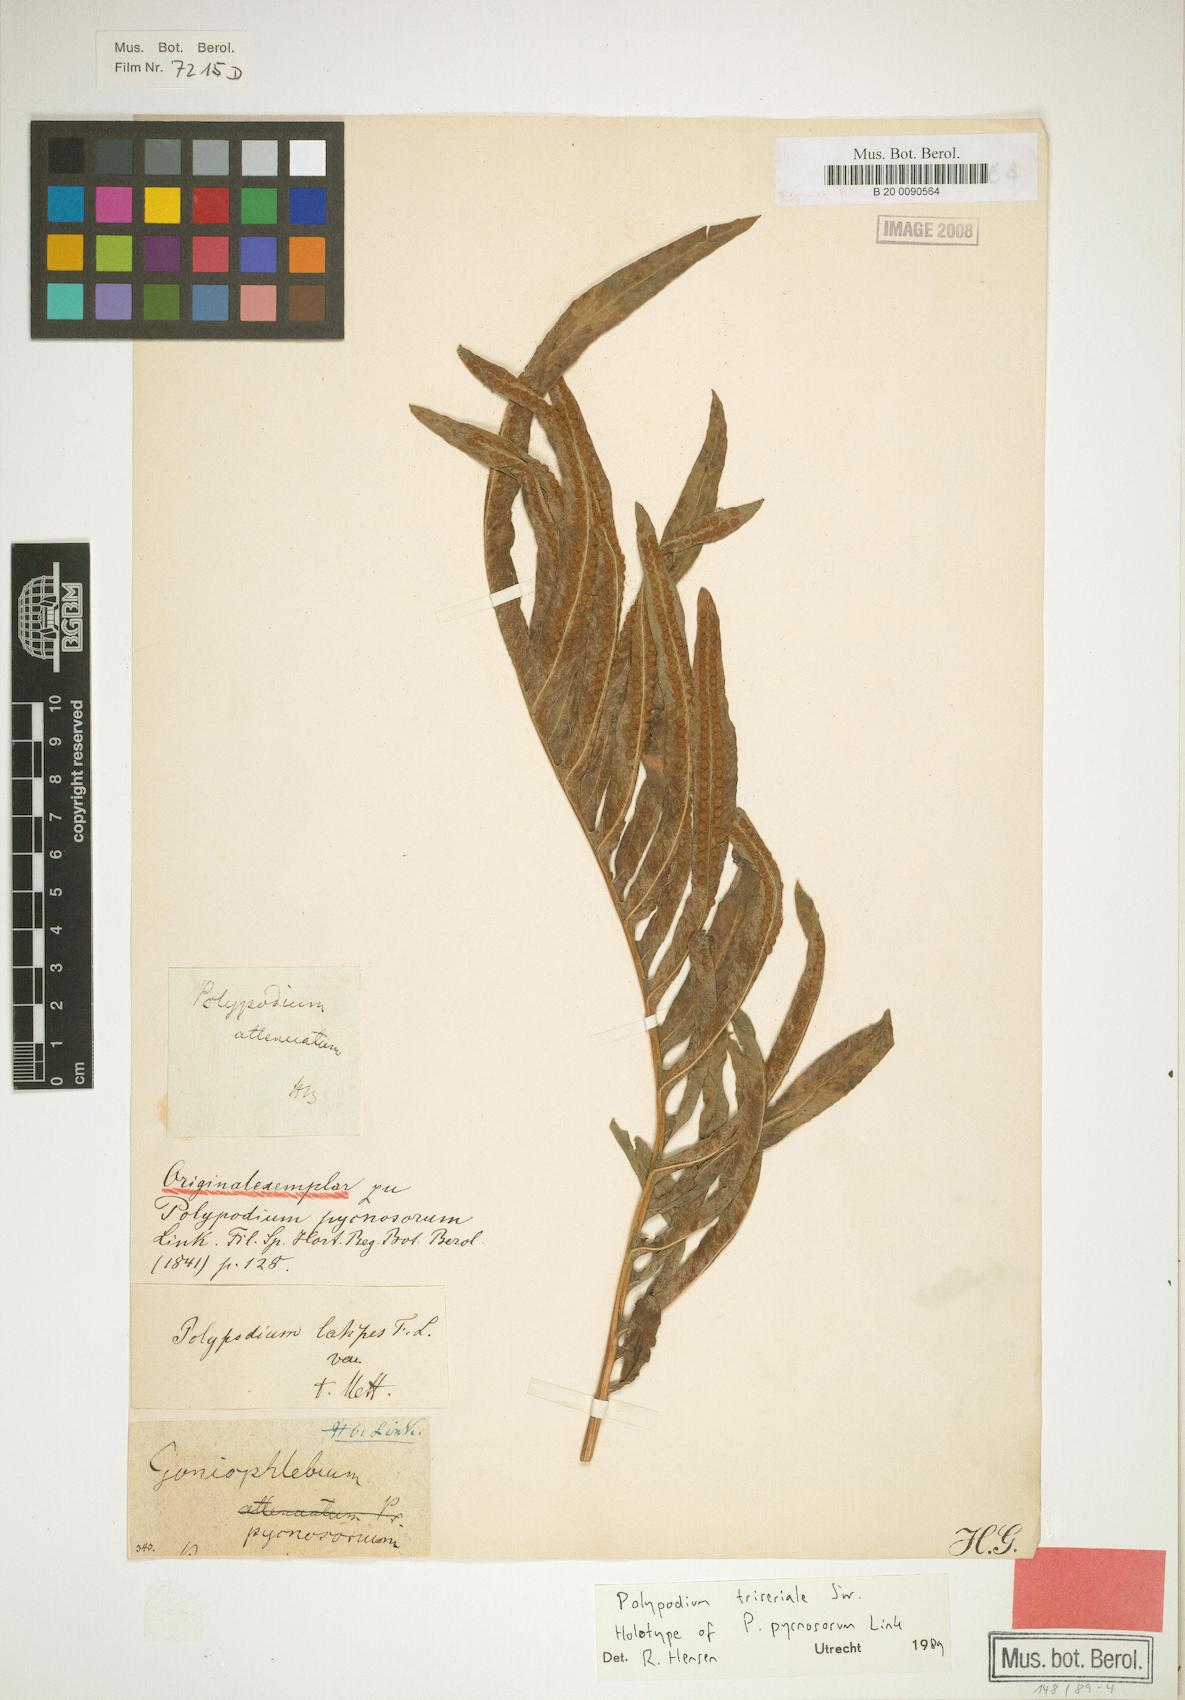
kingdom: Plantae
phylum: Tracheophyta
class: Polypodiopsida
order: Polypodiales
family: Polypodiaceae
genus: Serpocaulon
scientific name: Serpocaulon triseriale
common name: Angle-vein fern
